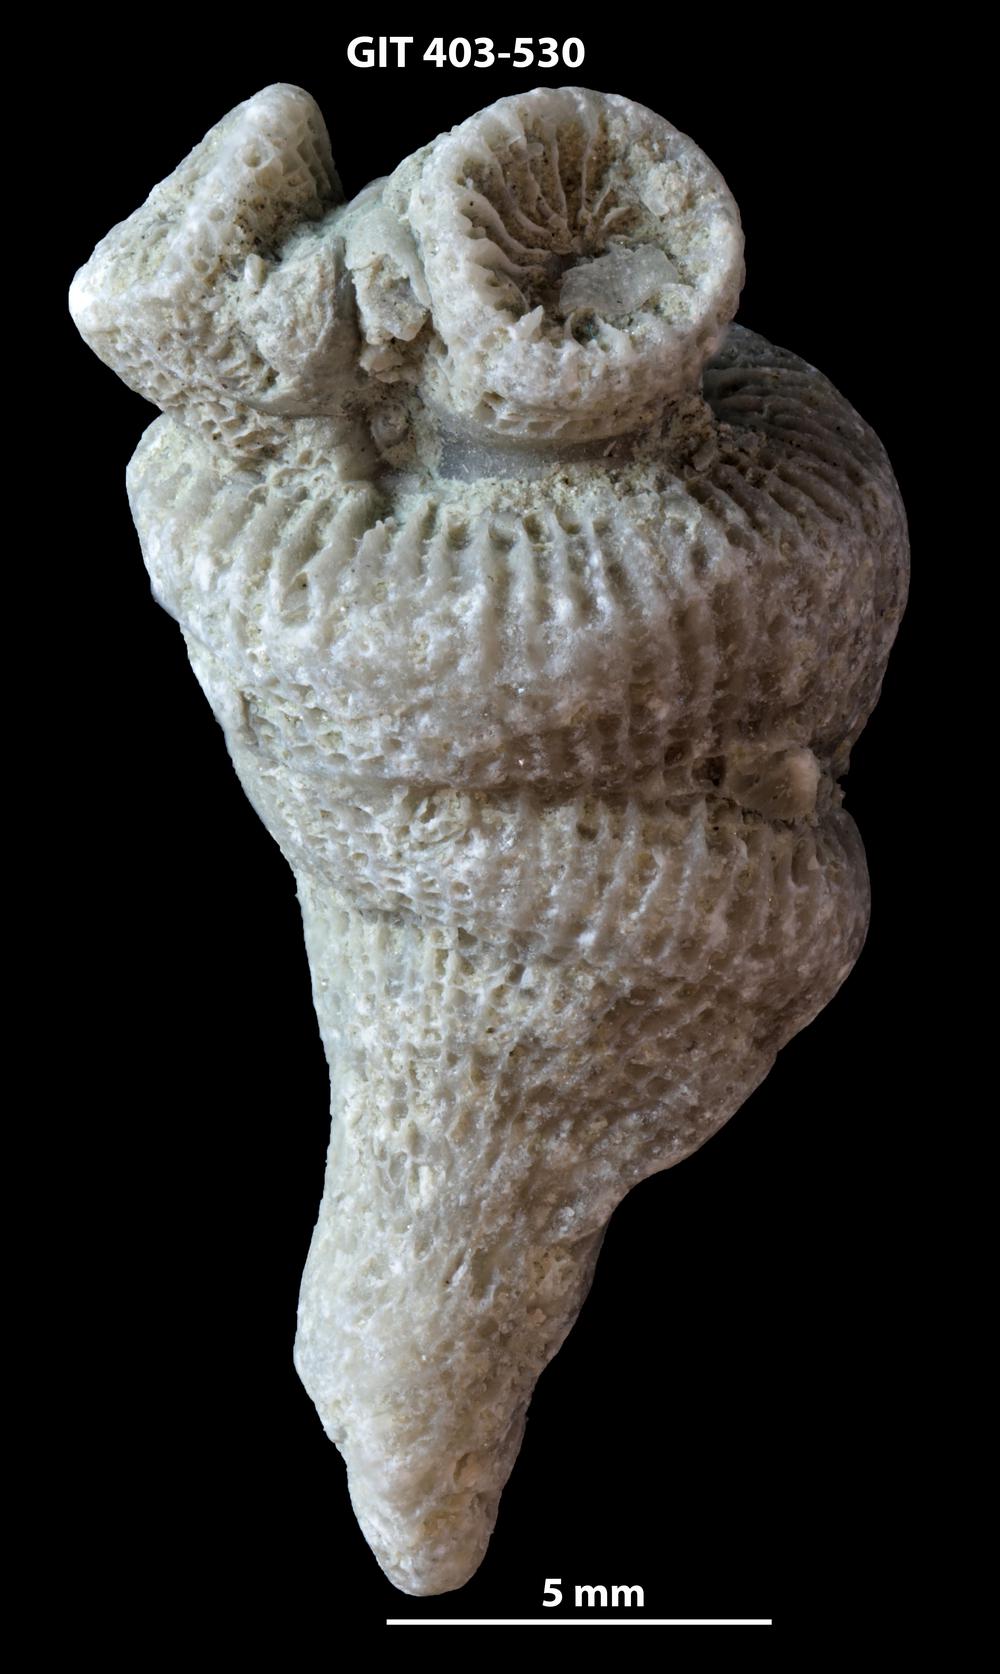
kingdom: Animalia
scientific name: Animalia
